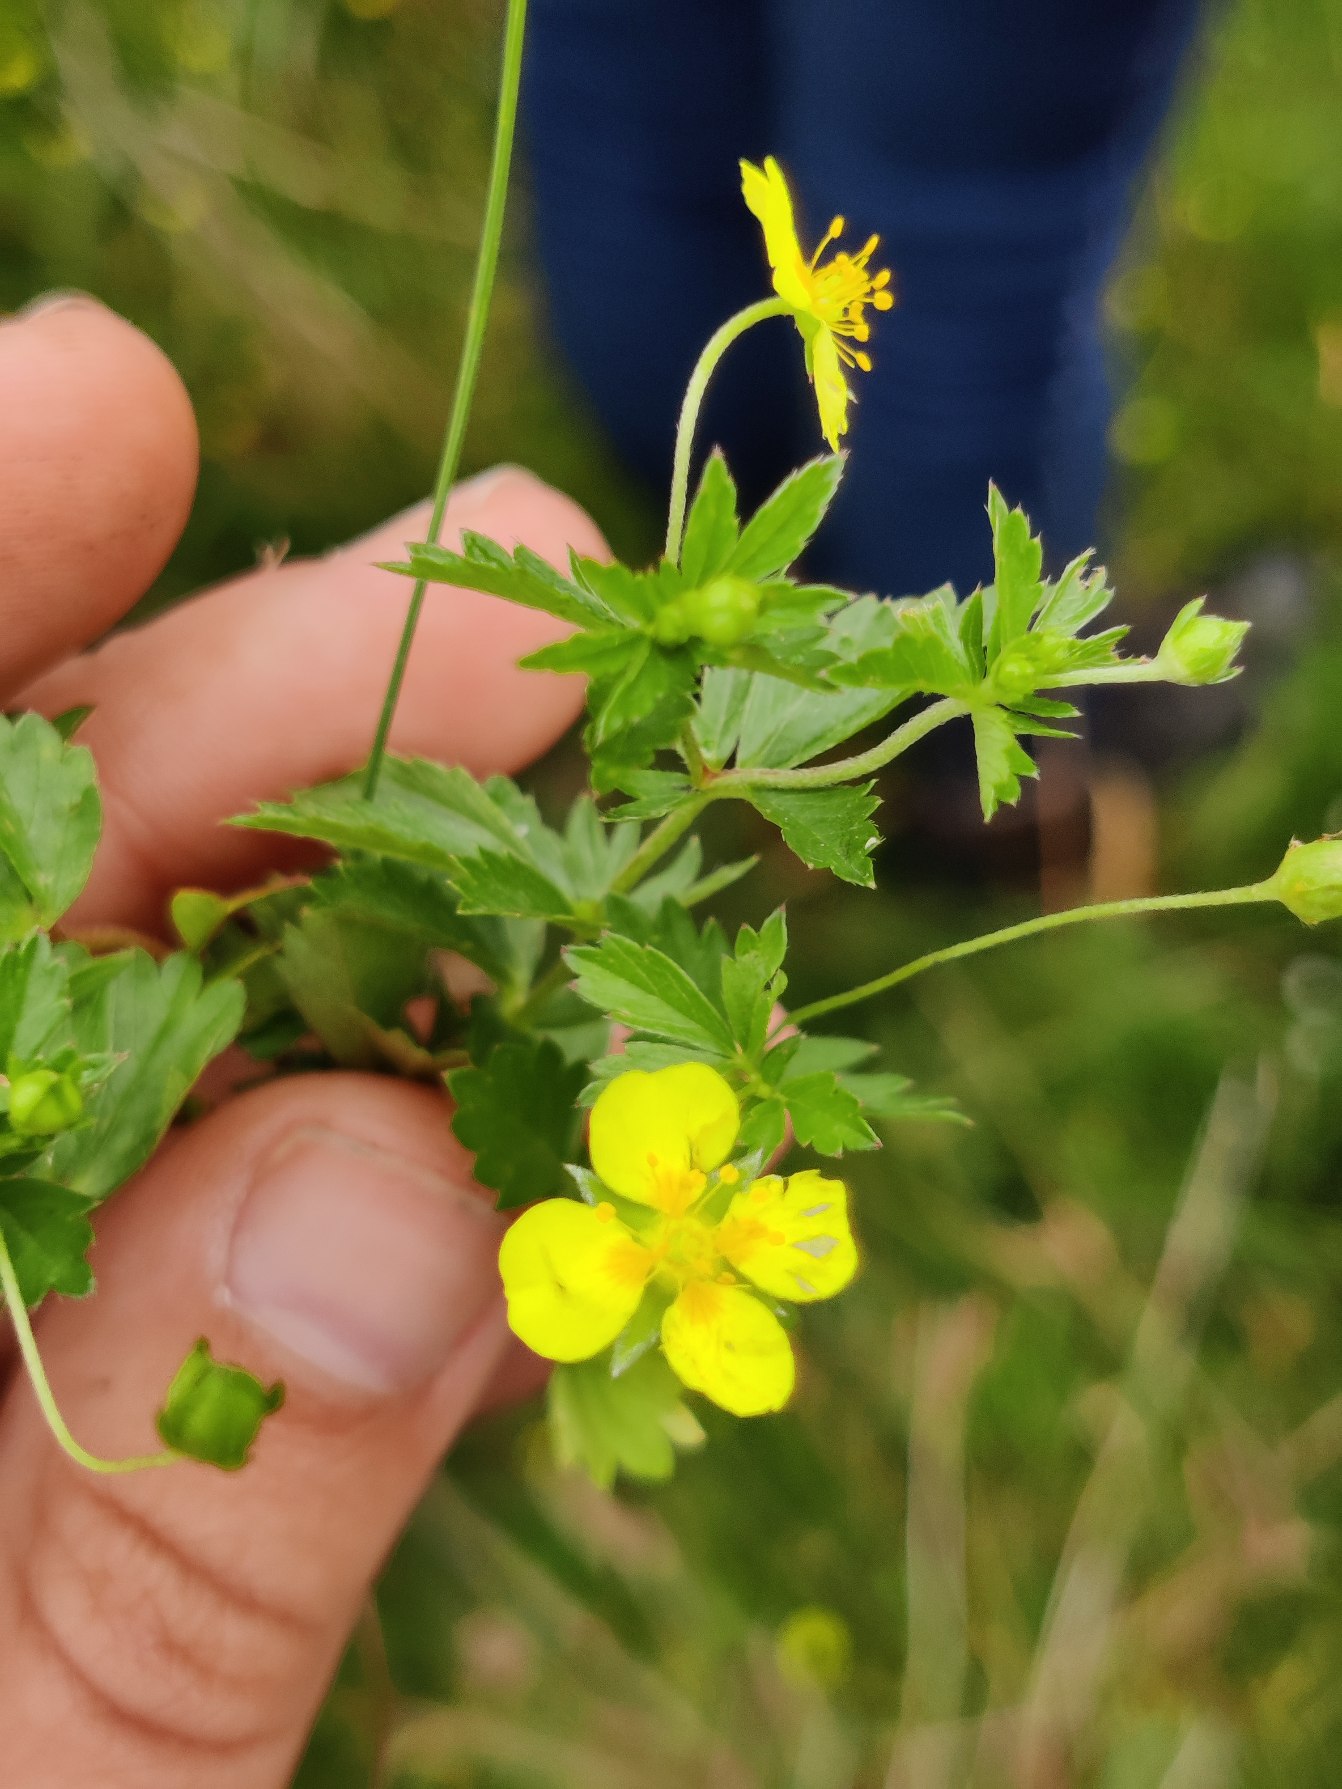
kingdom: Plantae
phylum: Tracheophyta
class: Magnoliopsida
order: Rosales
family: Rosaceae
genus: Potentilla
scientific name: Potentilla erecta
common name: Tormentil
